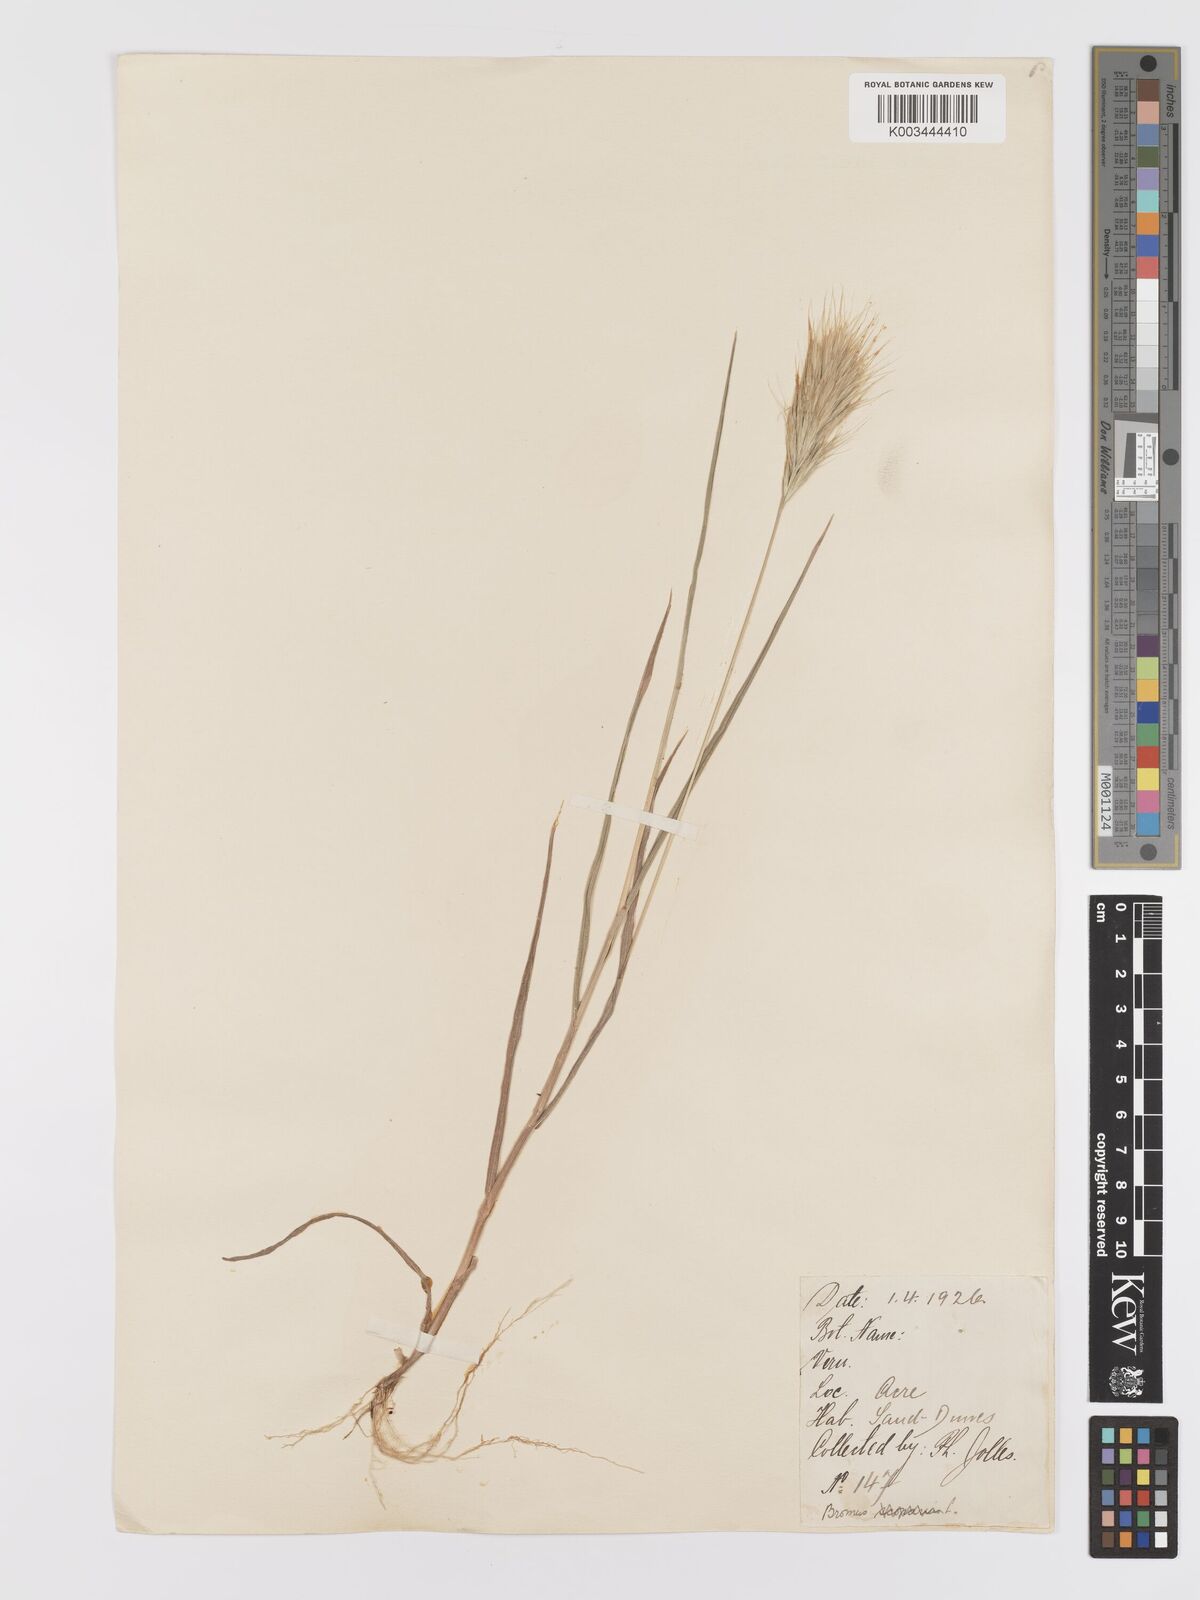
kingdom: Plantae
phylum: Tracheophyta
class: Liliopsida
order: Poales
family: Poaceae
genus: Bromus
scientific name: Bromus rubens
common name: Red brome
